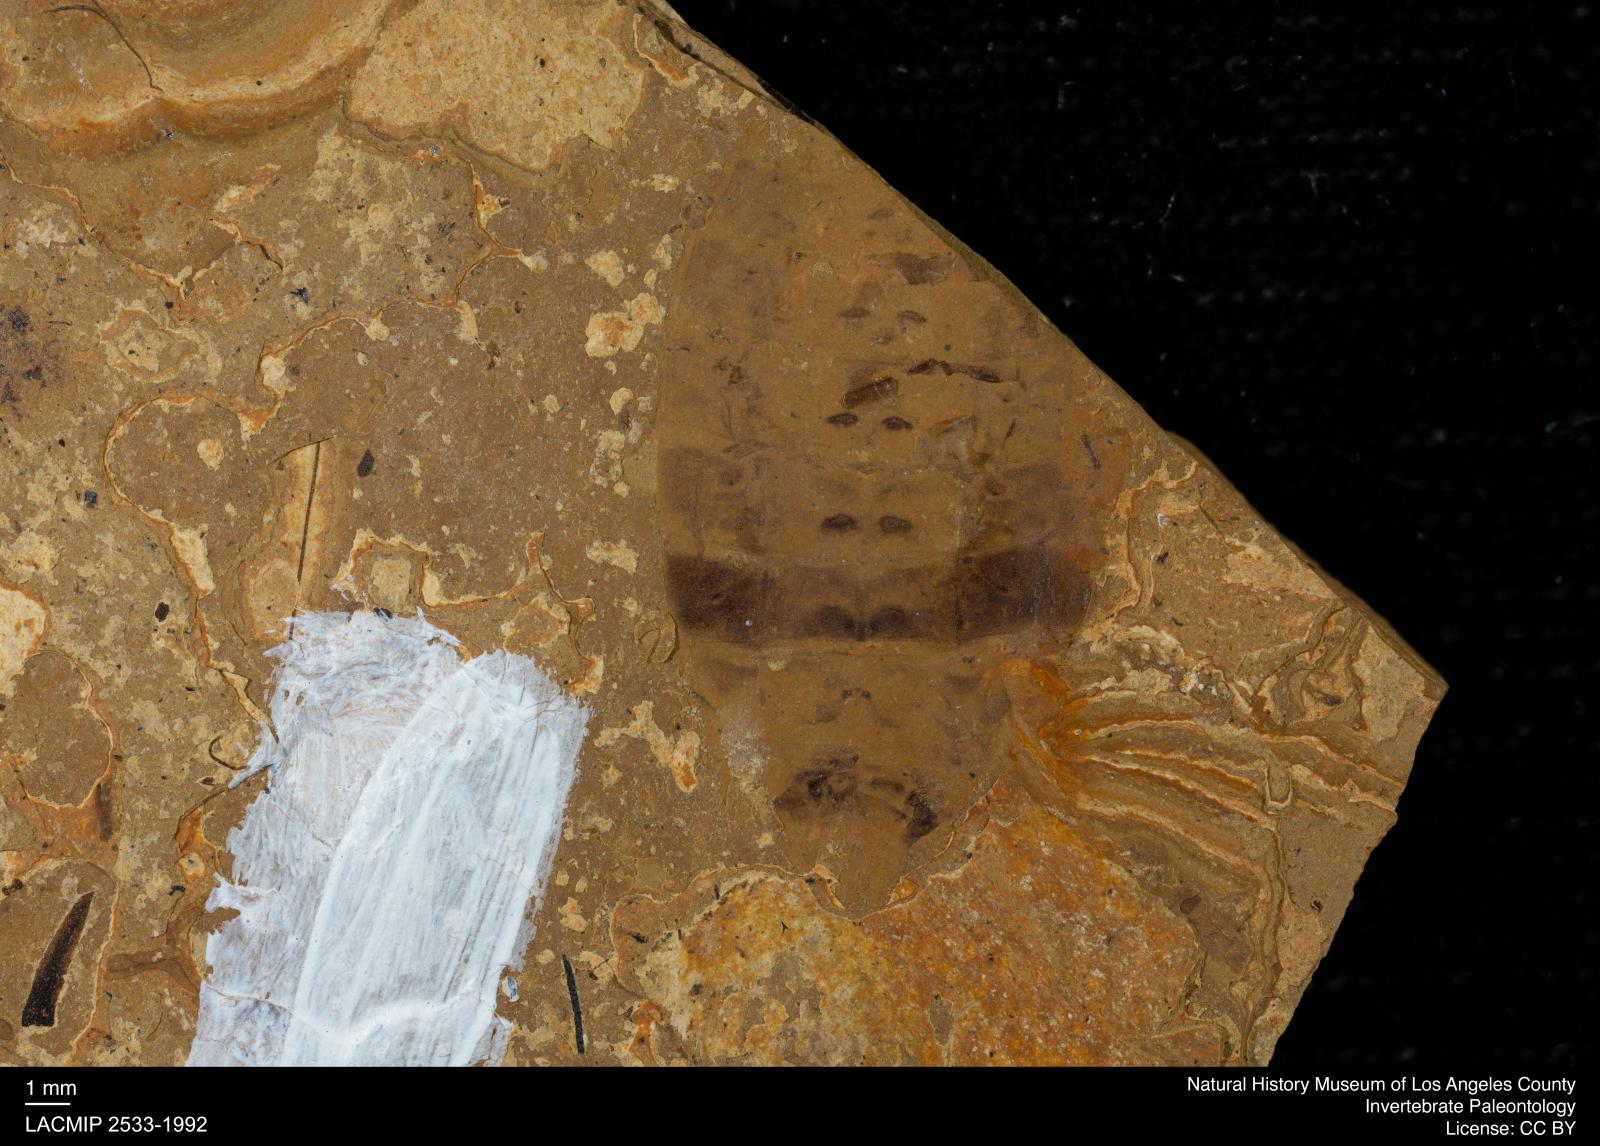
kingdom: Animalia
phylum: Arthropoda
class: Insecta
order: Thysanoptera
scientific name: Thysanoptera
